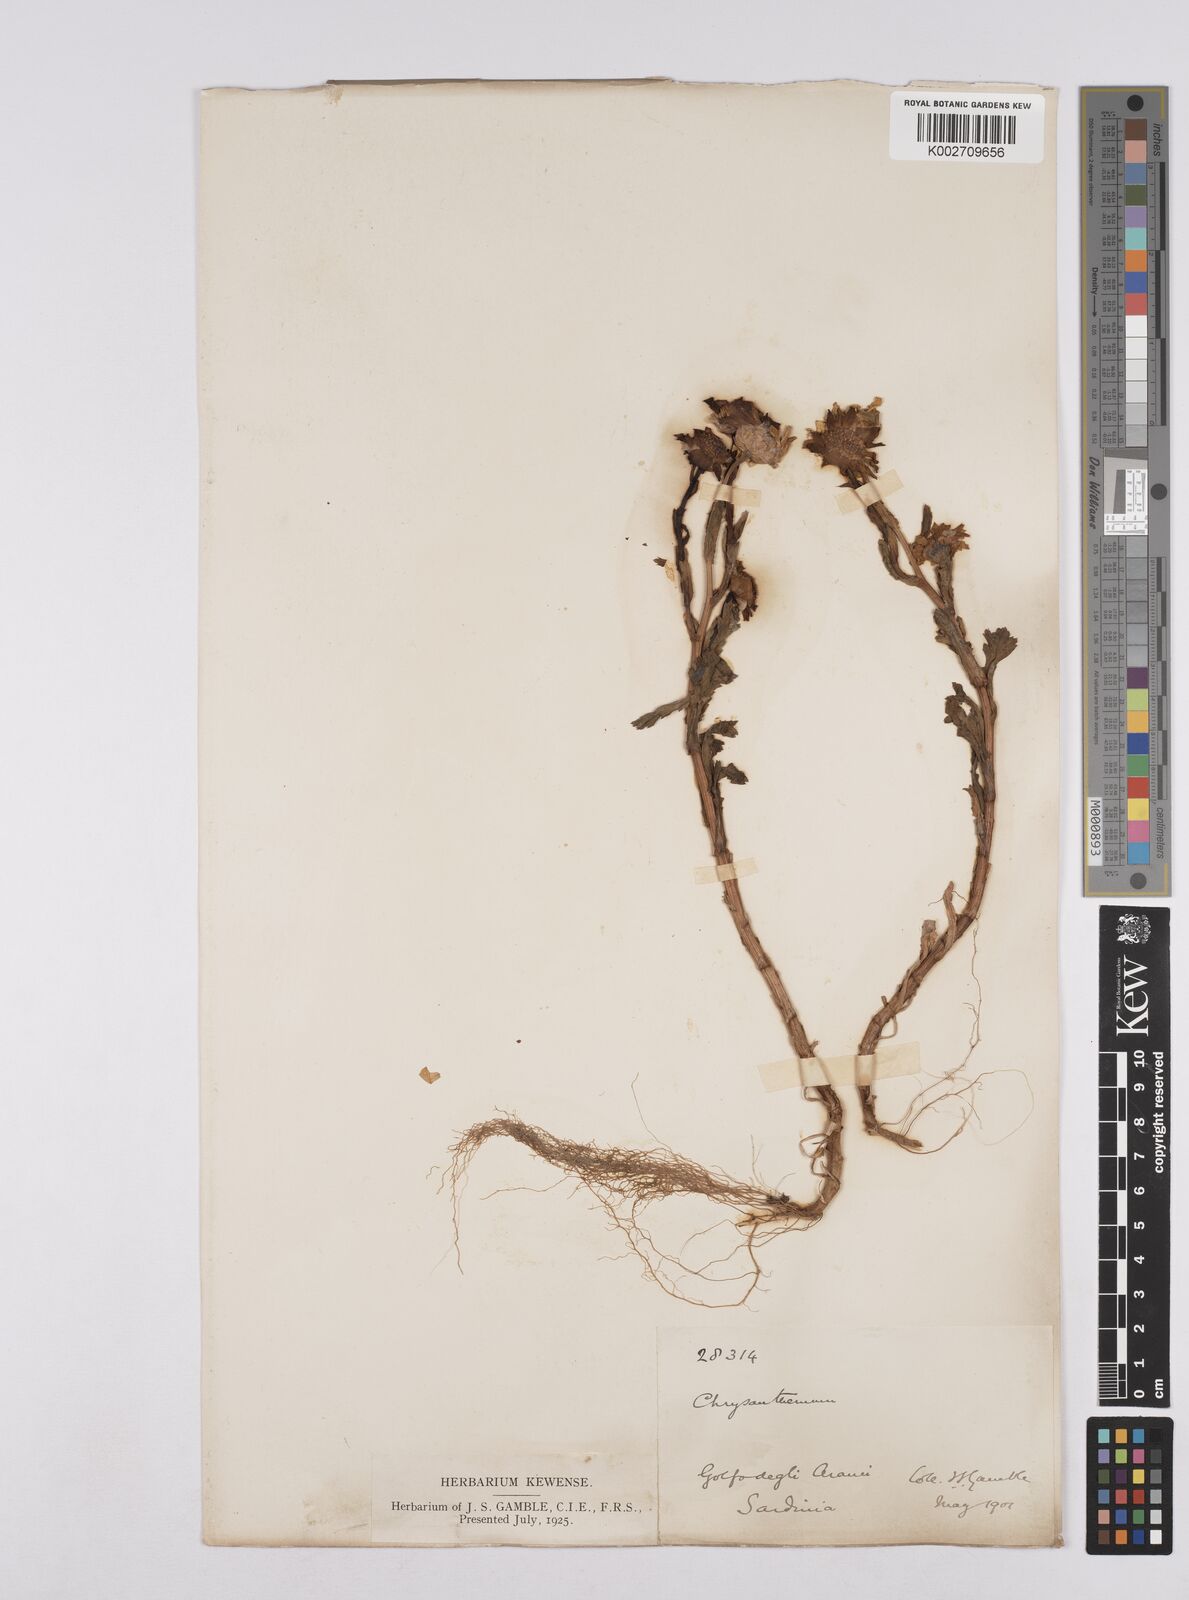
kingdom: Plantae
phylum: Tracheophyta
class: Magnoliopsida
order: Asterales
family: Asteraceae
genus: Coleostephus
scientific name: Coleostephus paludosus
